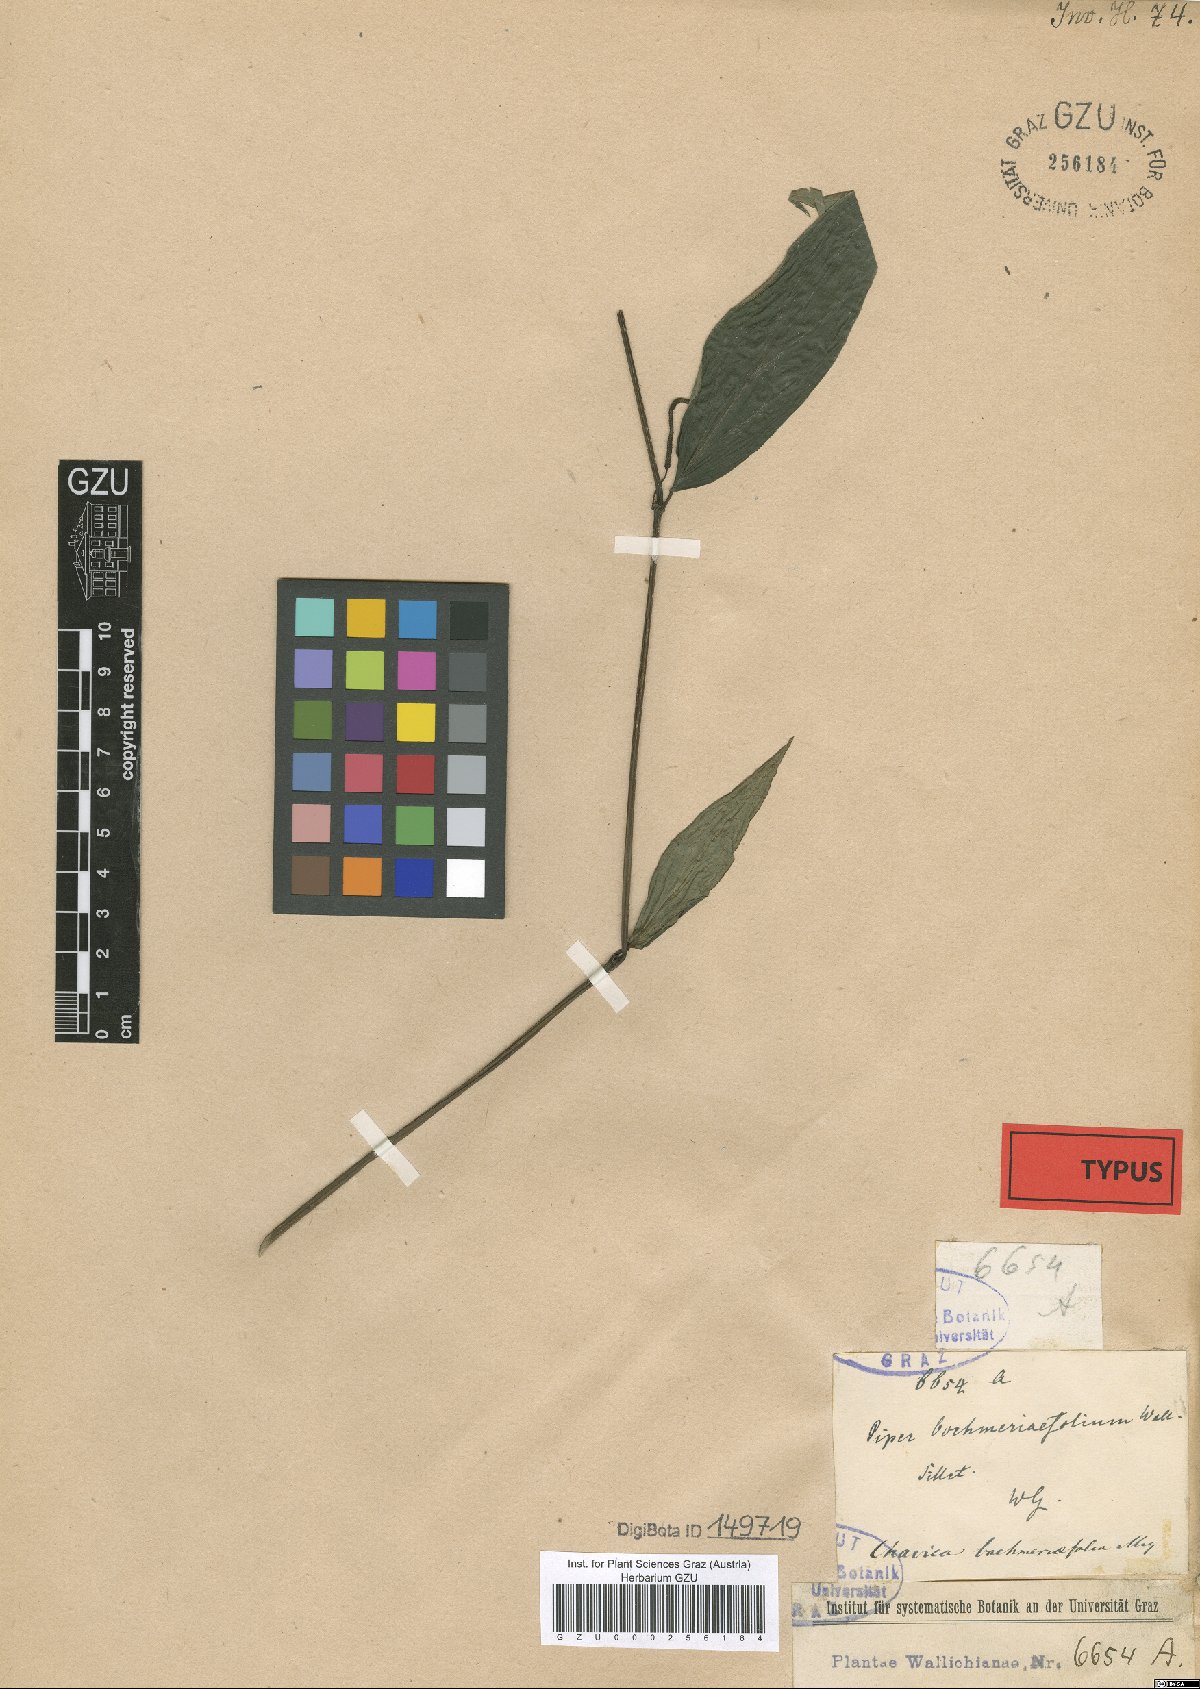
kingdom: Plantae
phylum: Tracheophyta
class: Magnoliopsida
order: Piperales
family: Piperaceae
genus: Piper
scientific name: Piper boehmeriifolium
